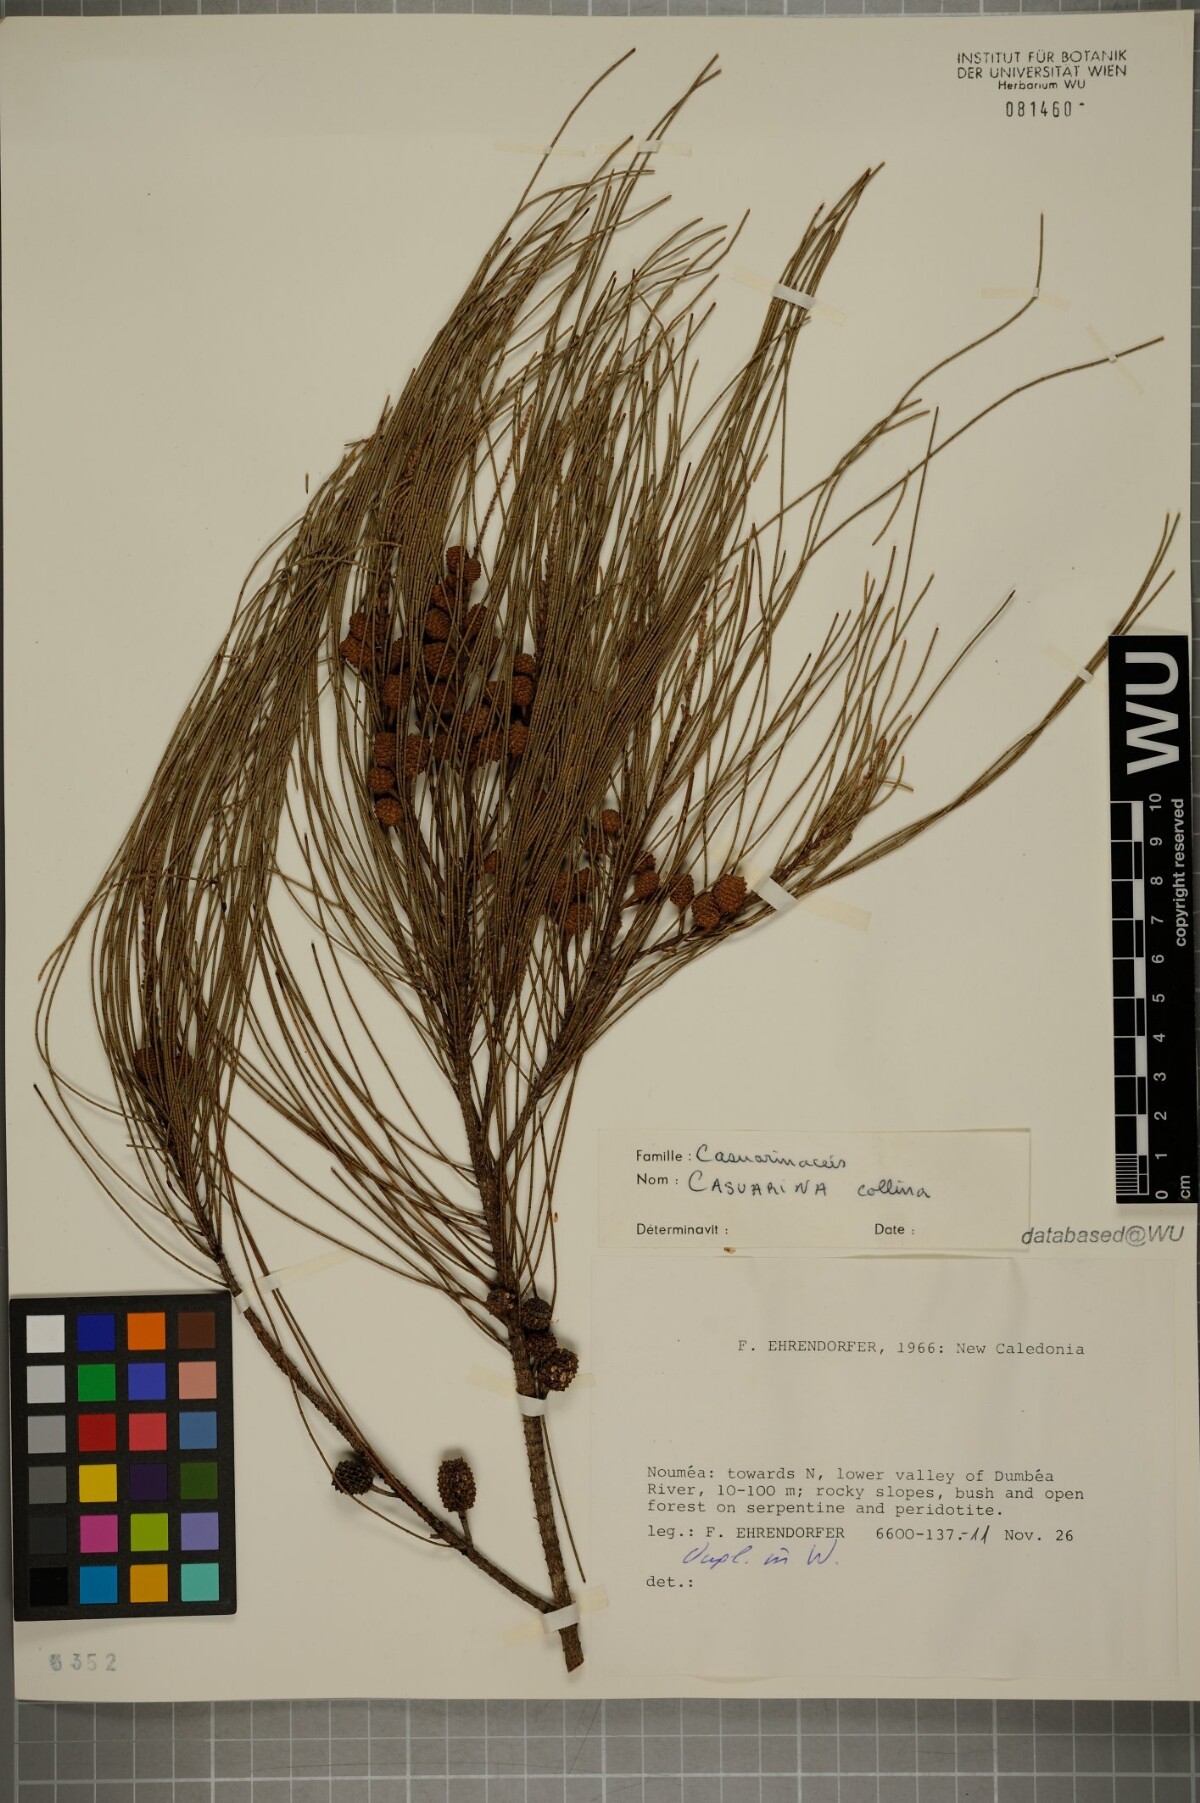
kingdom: Plantae
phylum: Tracheophyta
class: Magnoliopsida
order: Fagales
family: Casuarinaceae
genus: Casuarina
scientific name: Casuarina collina
